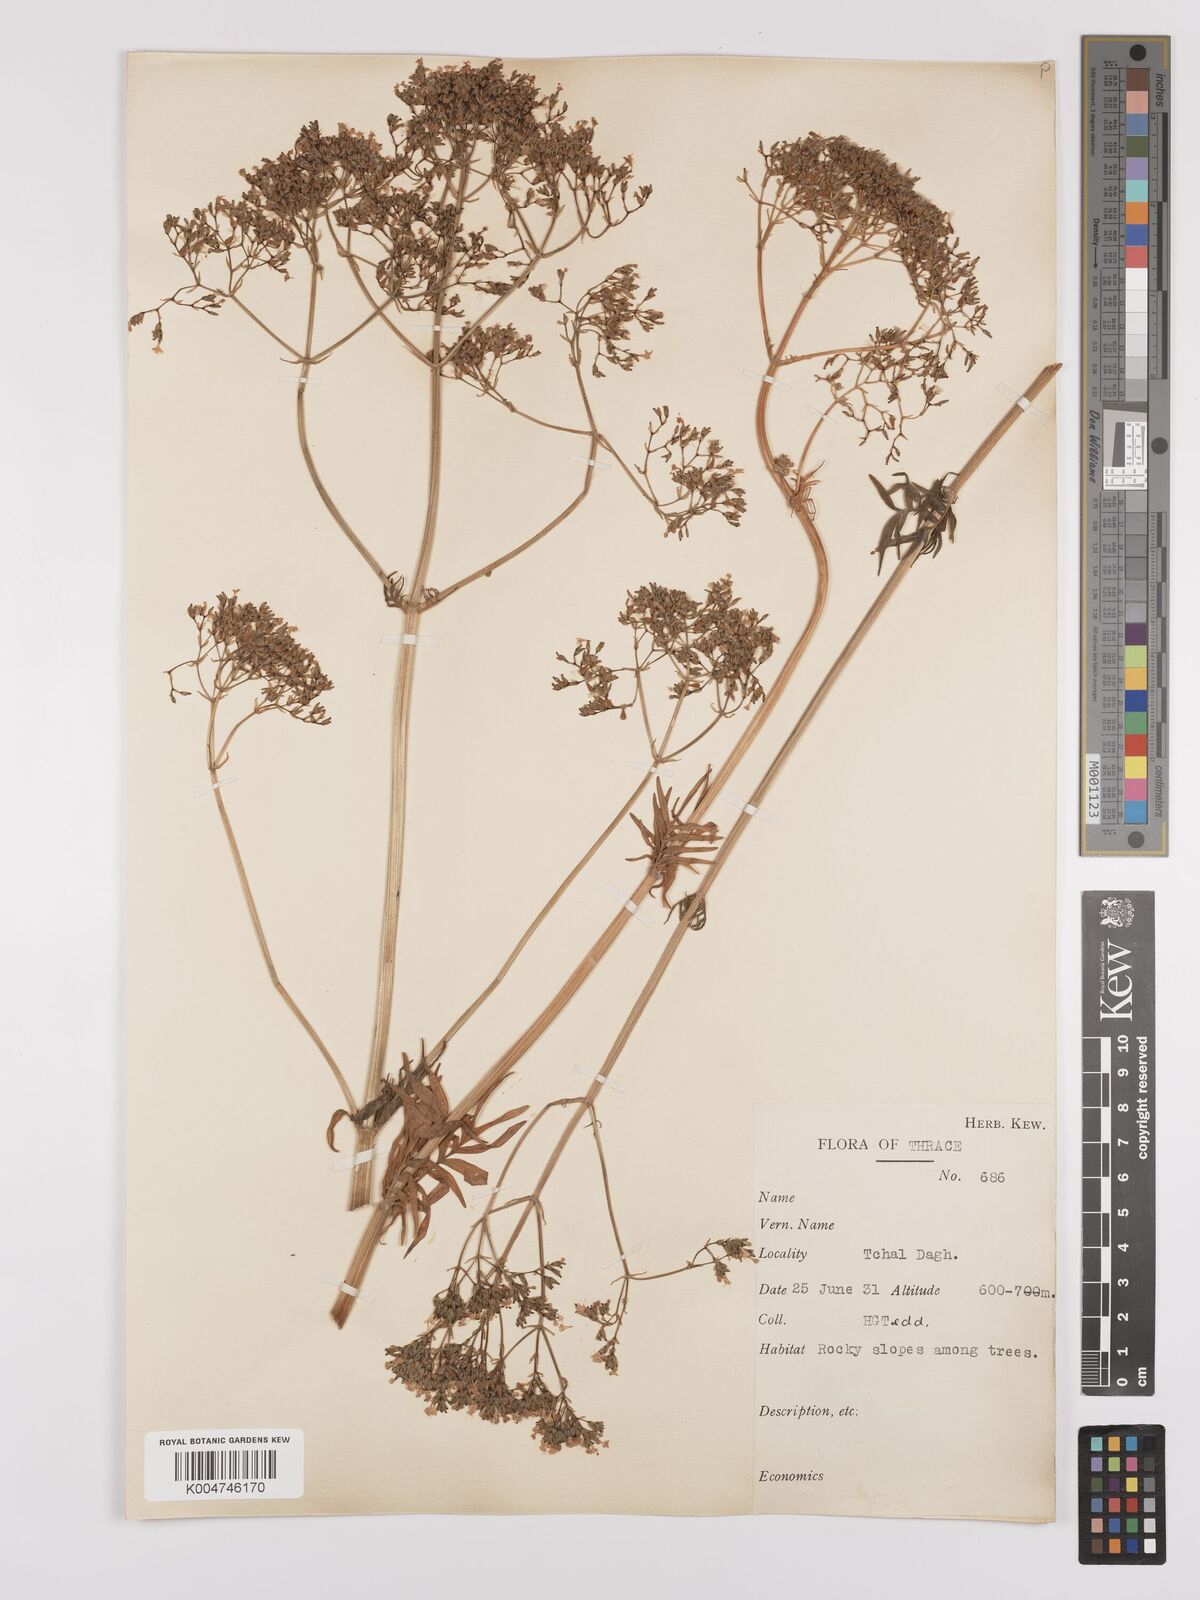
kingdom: Plantae
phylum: Tracheophyta
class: Magnoliopsida
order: Dipsacales
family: Caprifoliaceae
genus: Valeriana
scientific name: Valeriana dioscoridis
